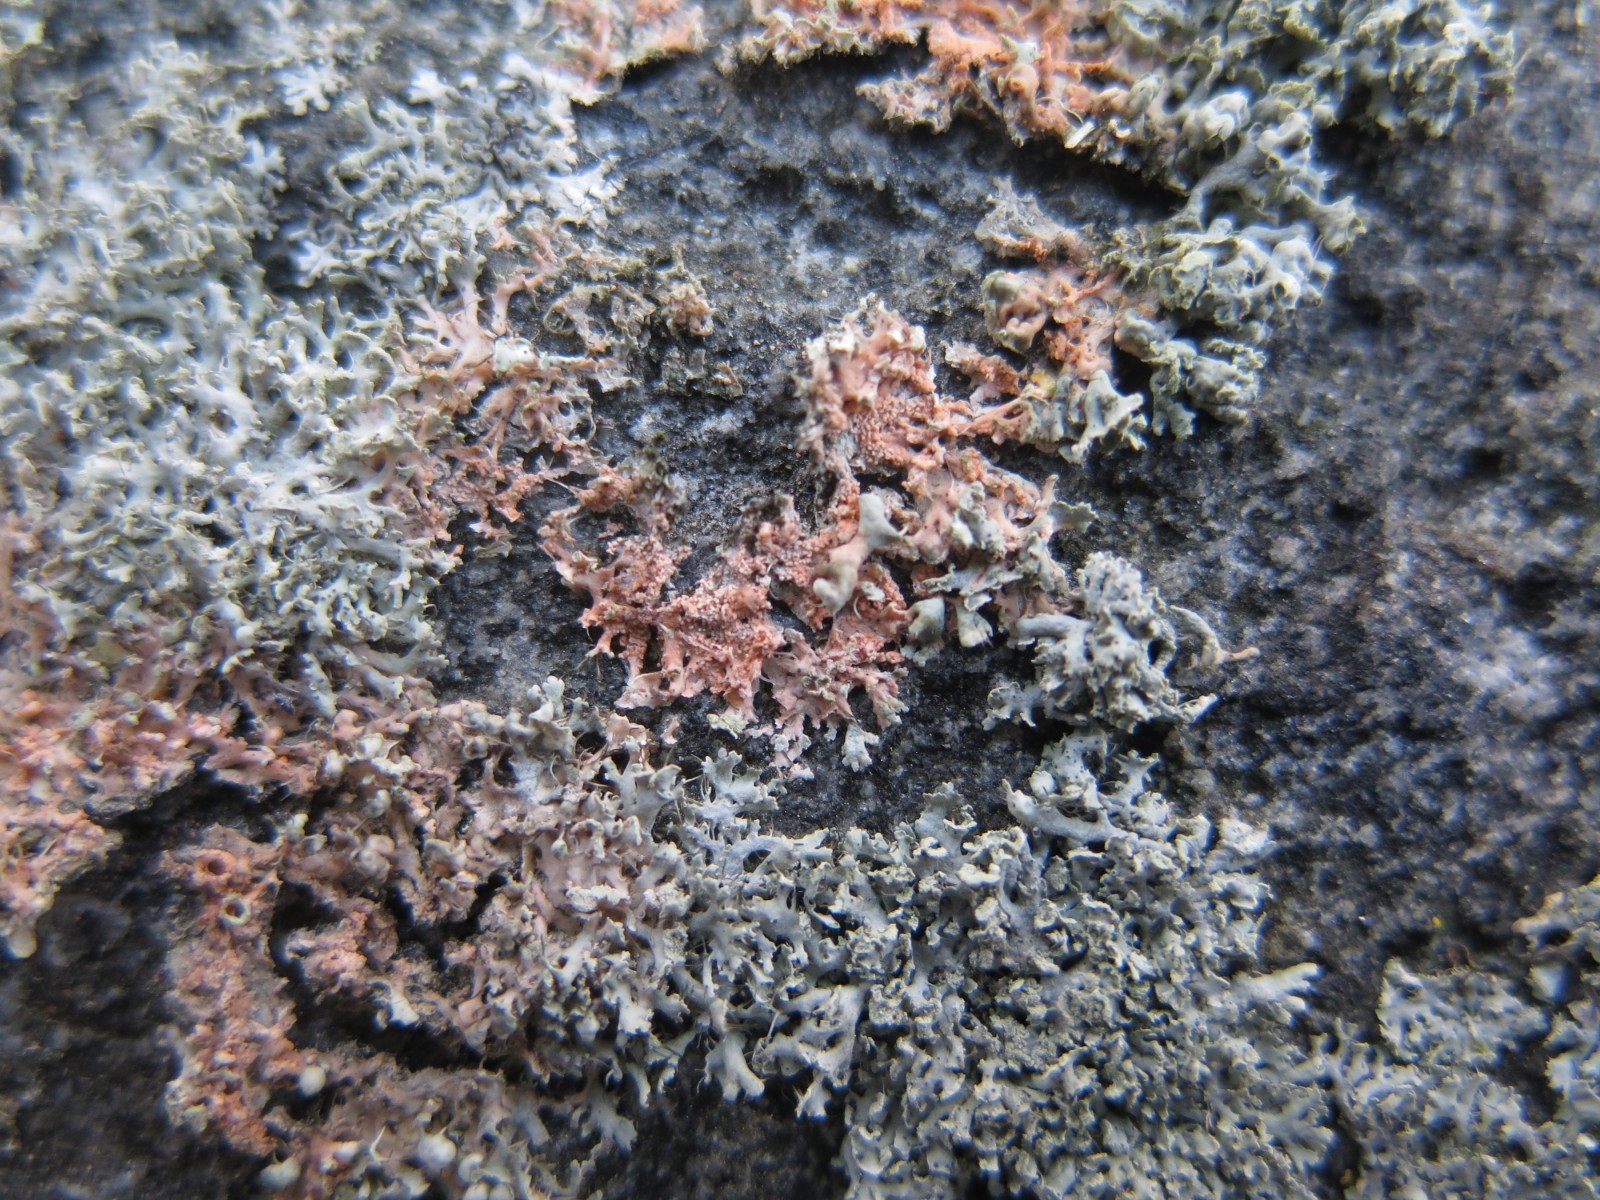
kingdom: Fungi
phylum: Basidiomycota
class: Agaricomycetes
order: Corticiales
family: Corticiaceae
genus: Erythricium
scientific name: Erythricium aurantiacum
